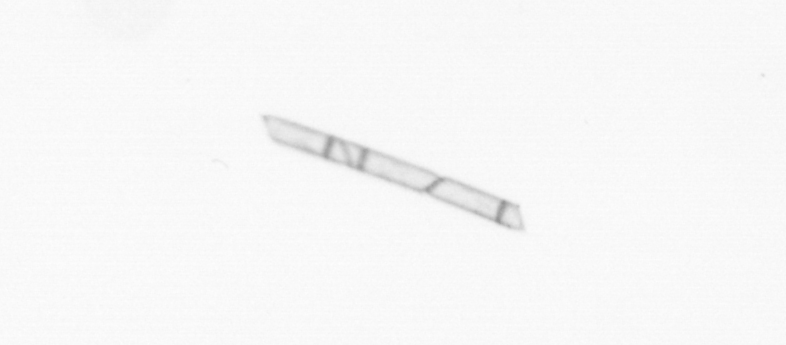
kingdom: Chromista
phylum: Ochrophyta
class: Bacillariophyceae
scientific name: Bacillariophyceae
